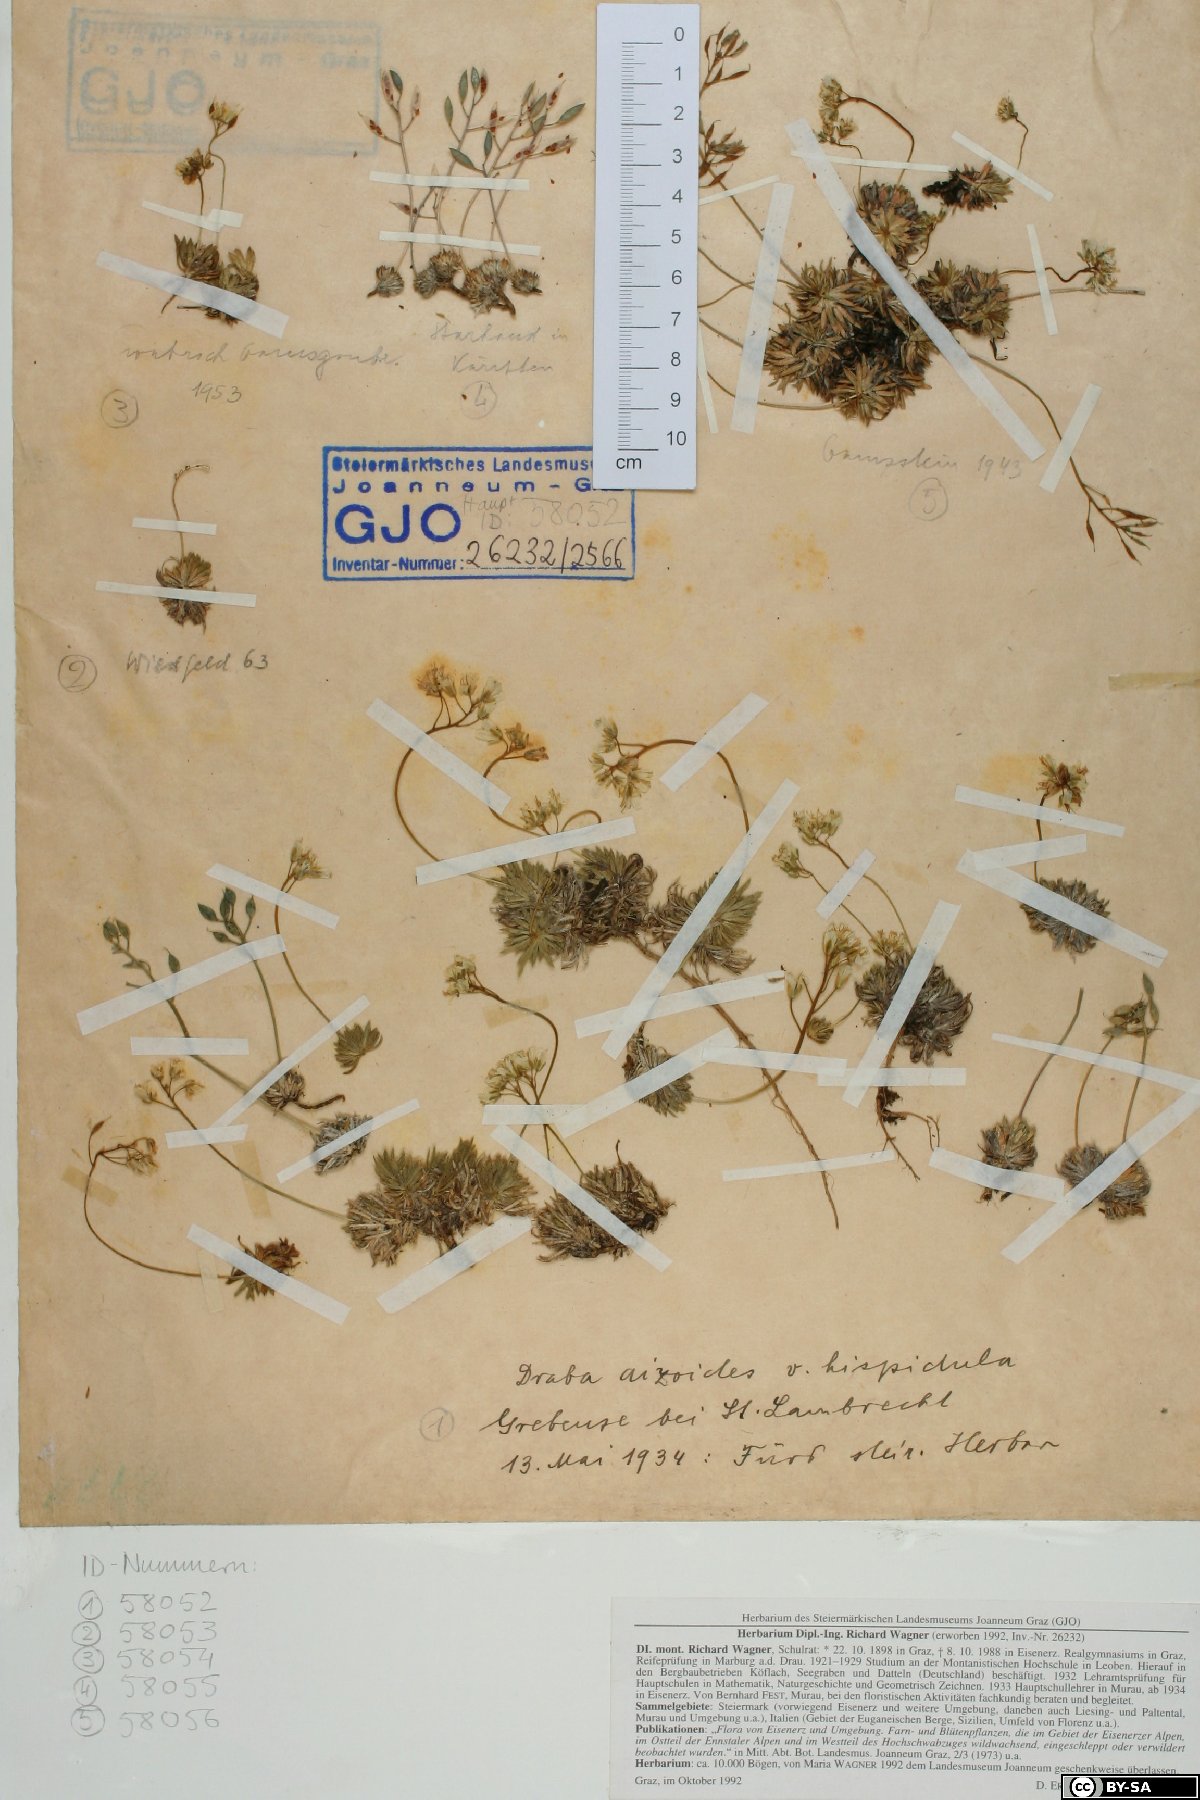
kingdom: Plantae
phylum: Tracheophyta
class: Magnoliopsida
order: Brassicales
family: Brassicaceae
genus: Draba
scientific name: Draba aizoides
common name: Yellow whitlowgrass
